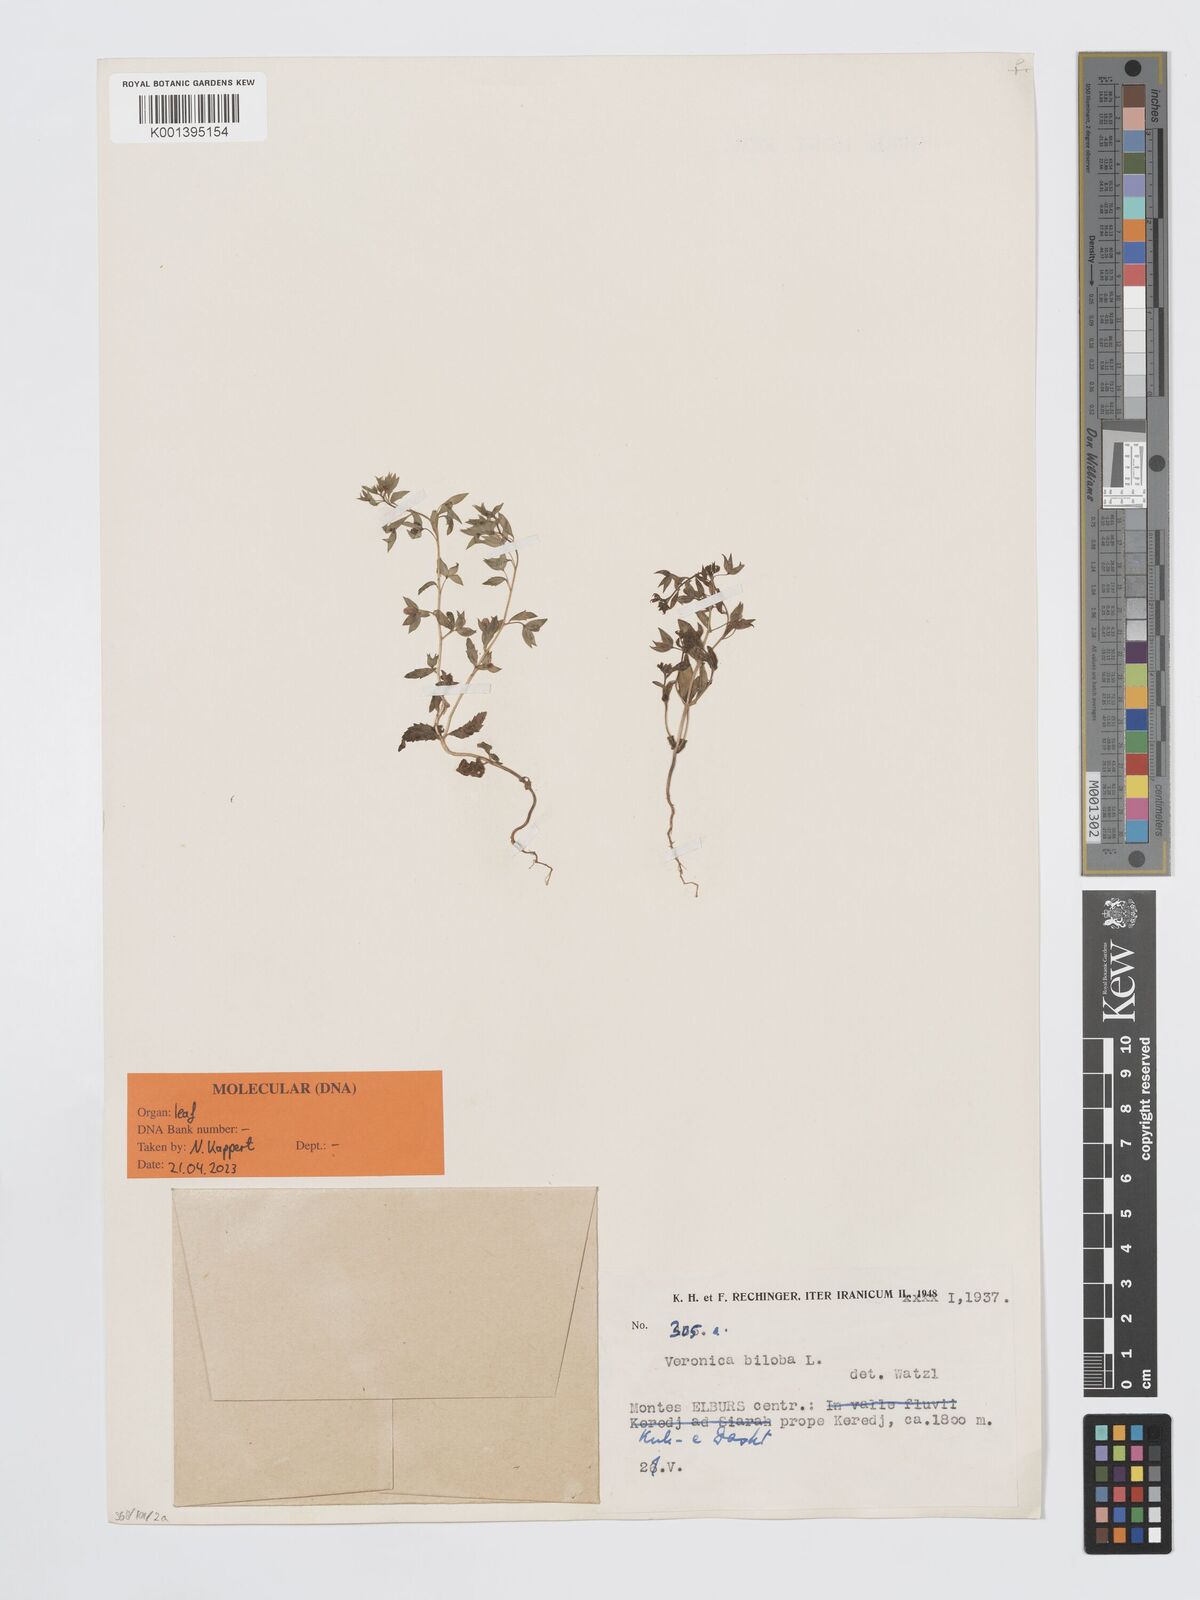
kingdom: Plantae
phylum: Tracheophyta
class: Magnoliopsida
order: Lamiales
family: Plantaginaceae
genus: Veronica
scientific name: Veronica biloba
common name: Twolobe speedwell
